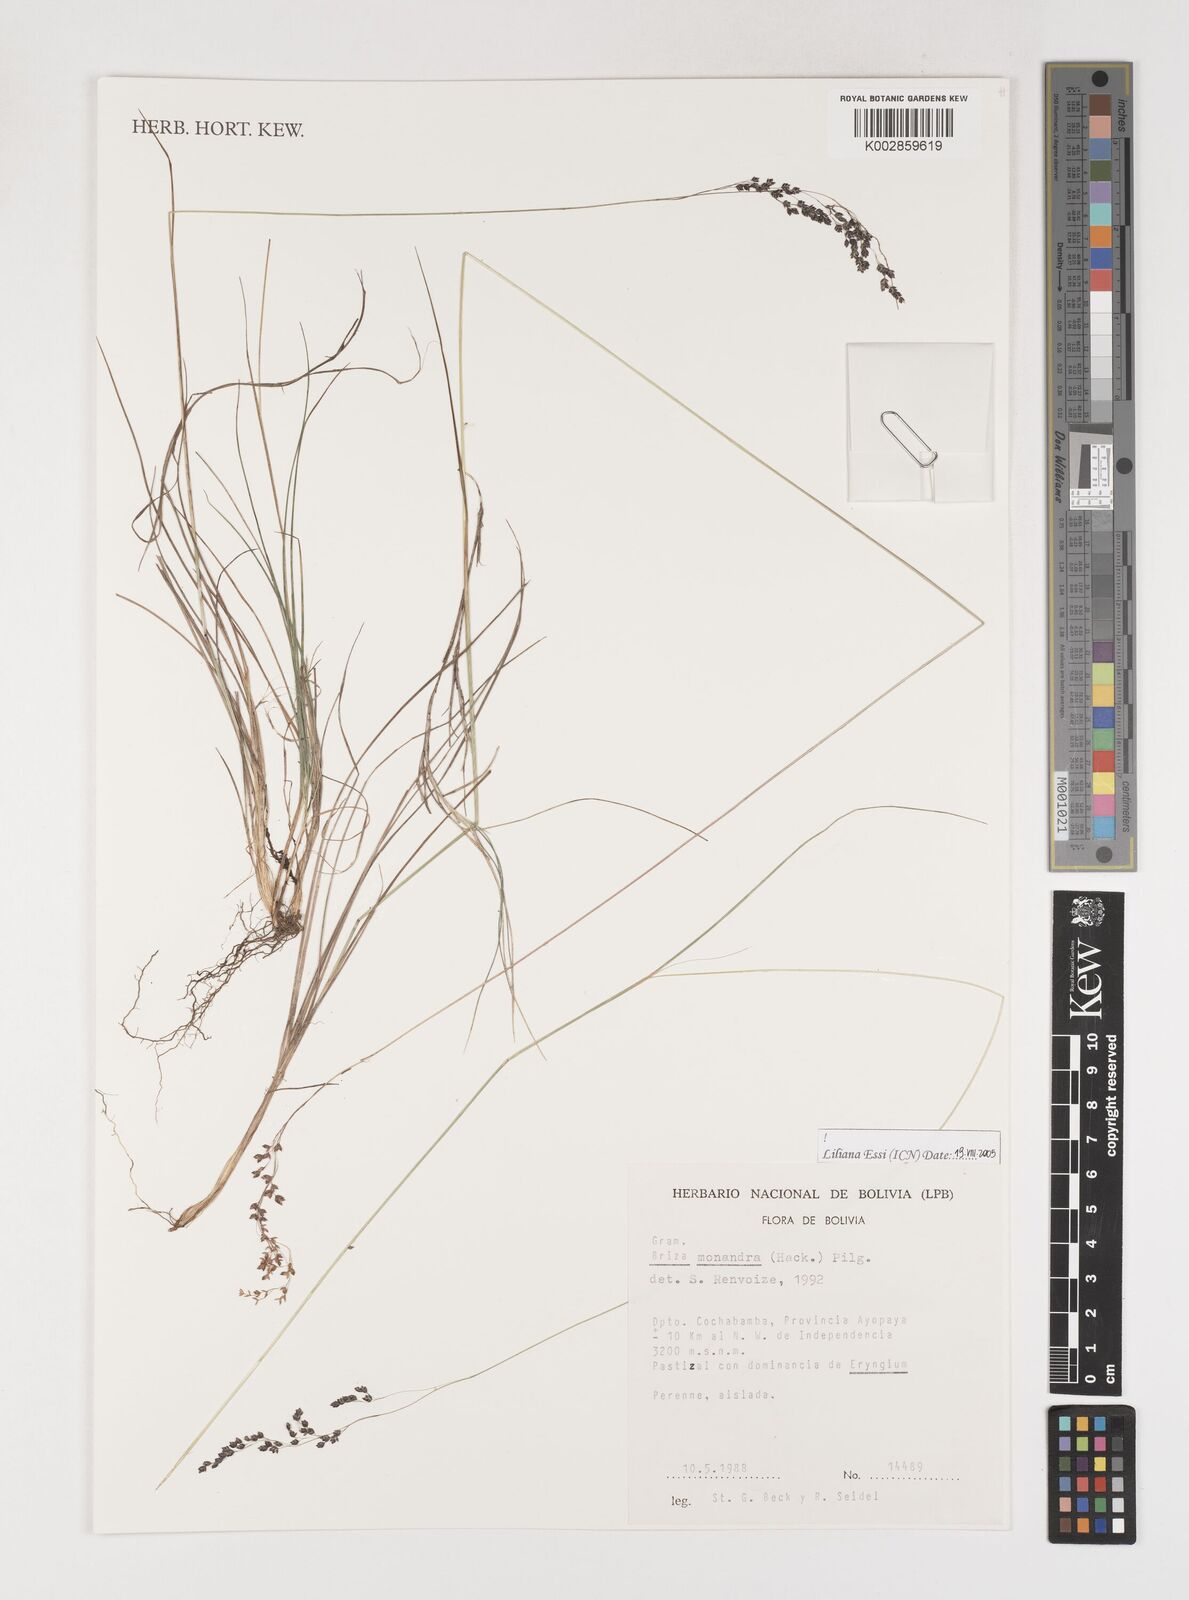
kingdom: Plantae
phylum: Tracheophyta
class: Liliopsida
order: Poales
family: Poaceae
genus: Poidium
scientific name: Poidium monandrum
